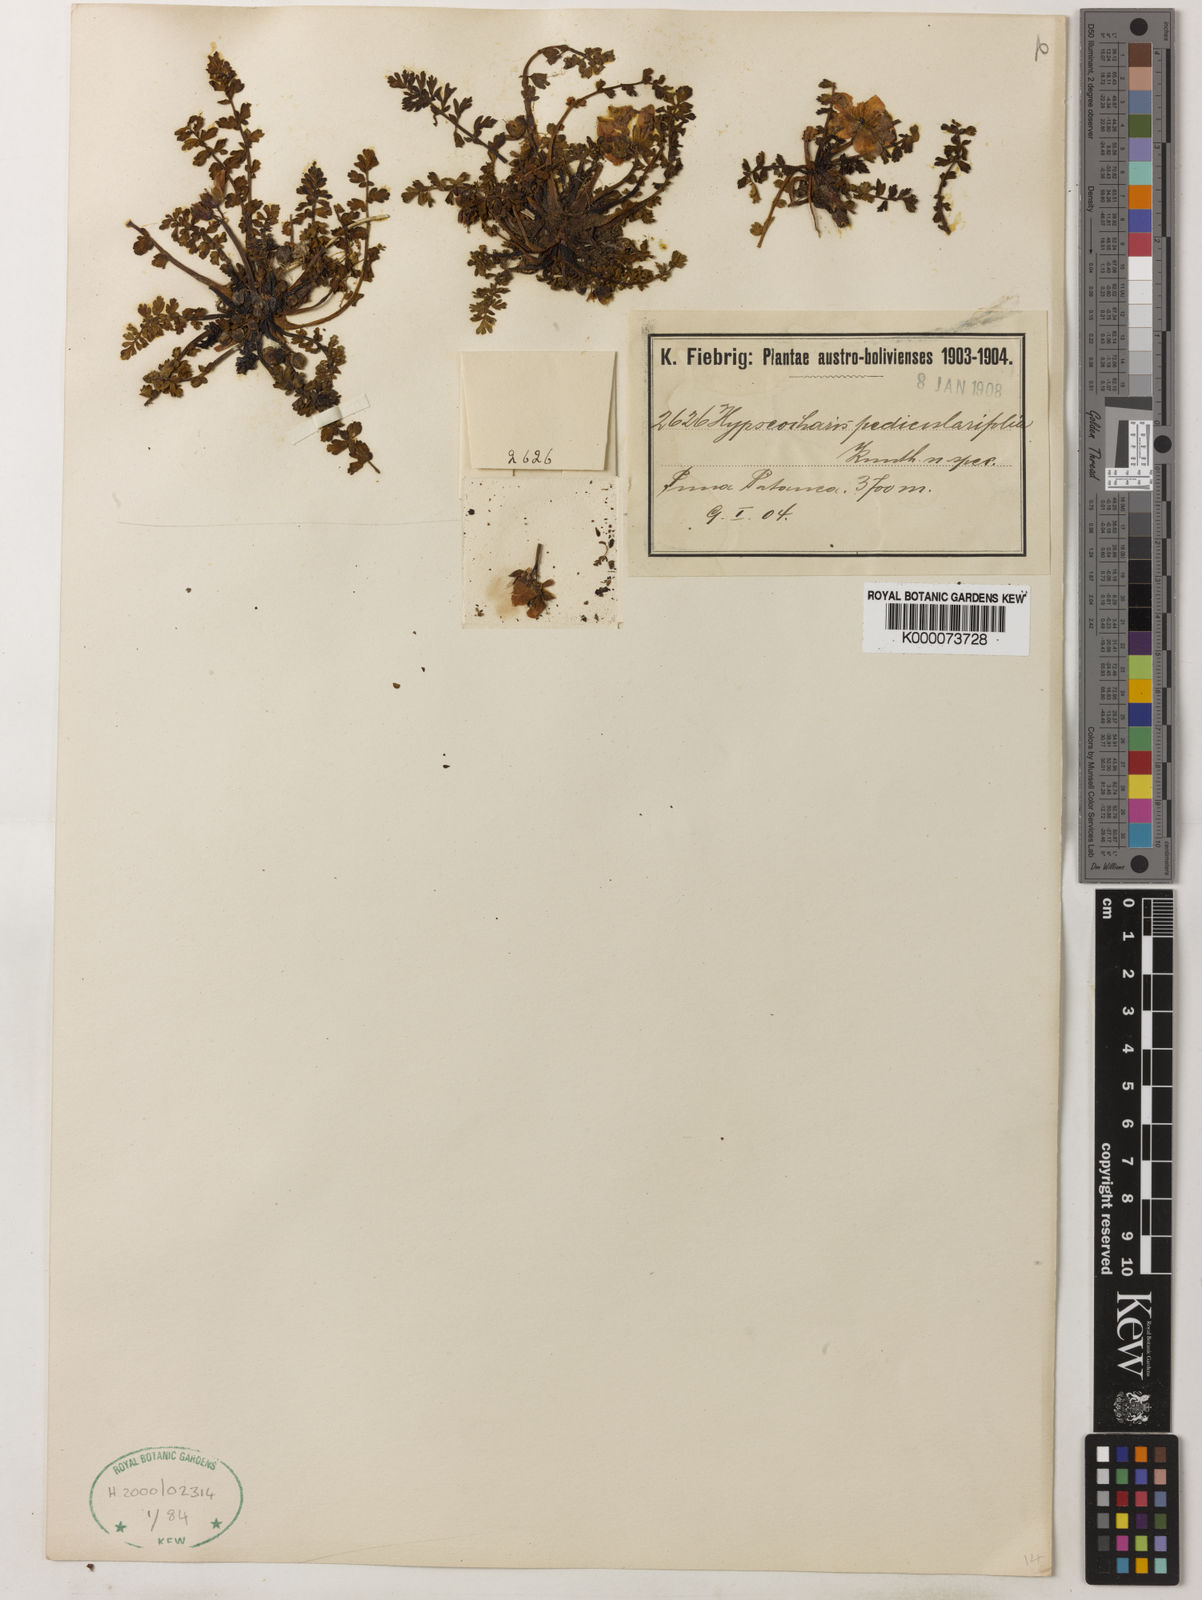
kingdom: Plantae
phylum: Tracheophyta
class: Magnoliopsida
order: Geraniales
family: Hypseocharitaceae
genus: Hypseocharis
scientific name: Hypseocharis pedicularifolia
